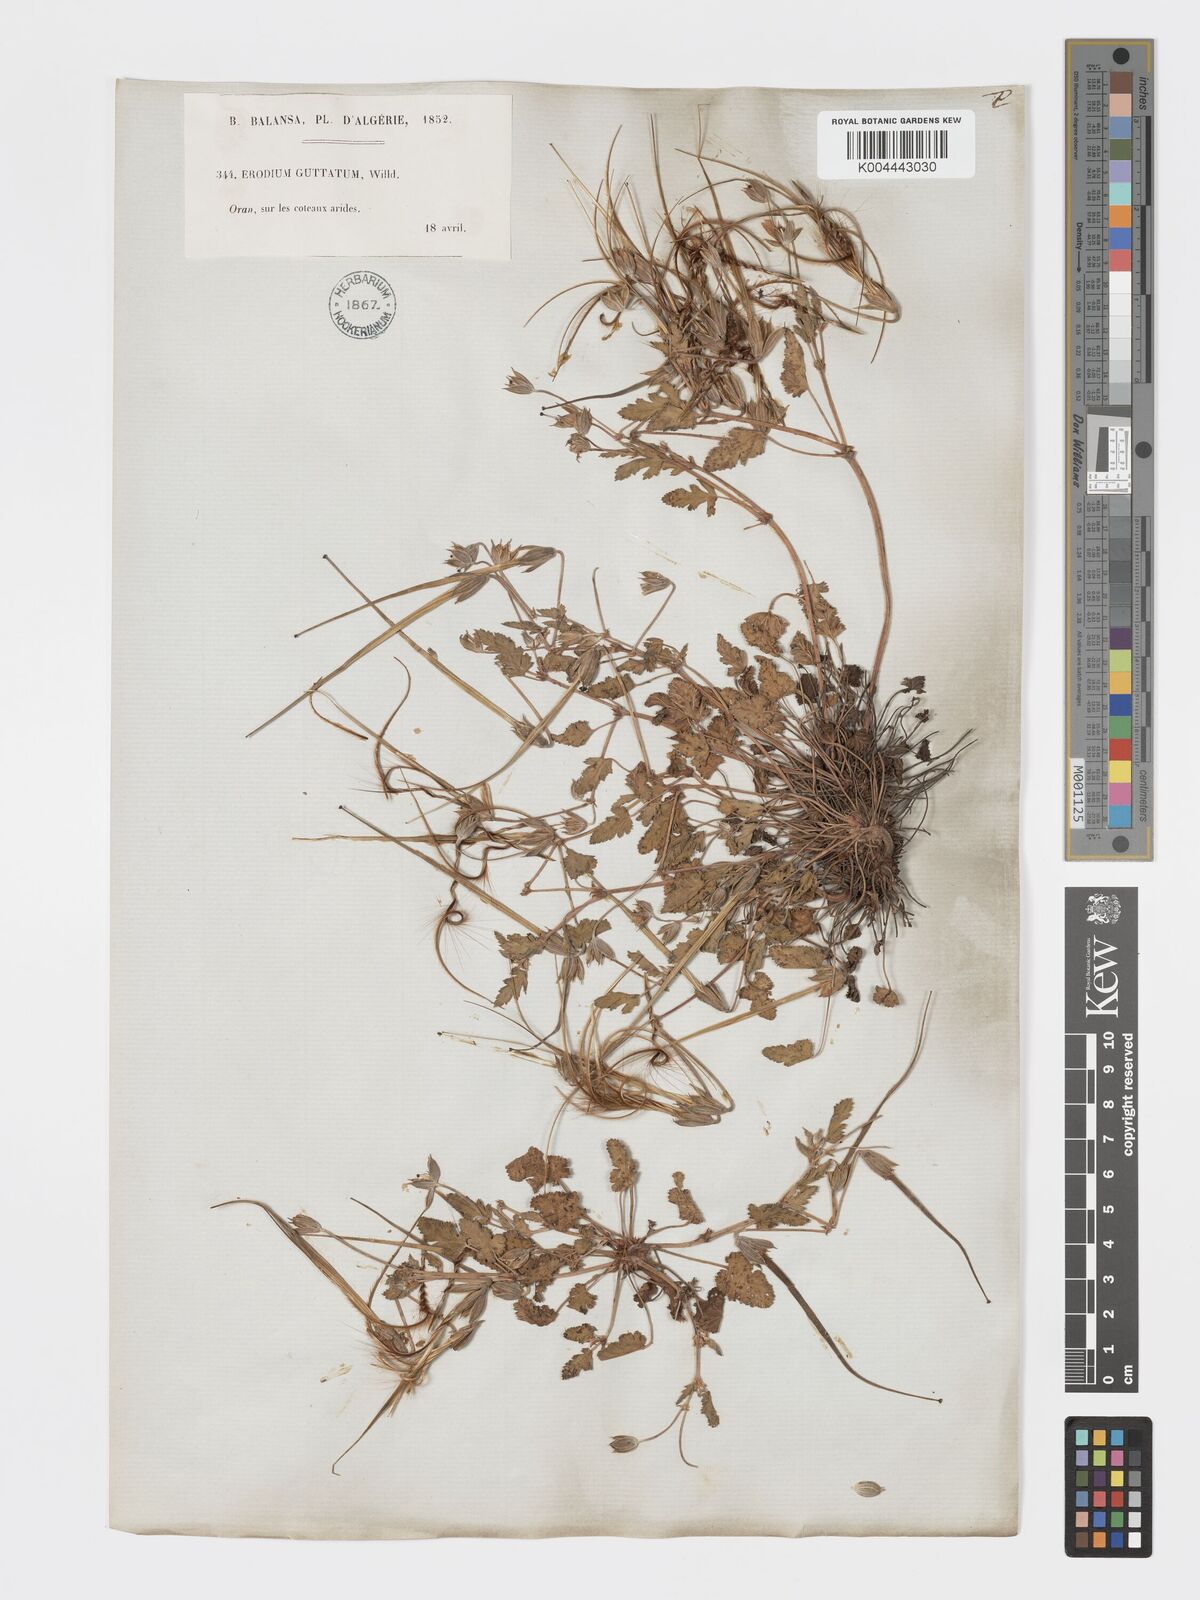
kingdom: Plantae
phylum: Tracheophyta
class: Magnoliopsida
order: Geraniales
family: Geraniaceae
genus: Erodium
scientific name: Erodium guttatum
